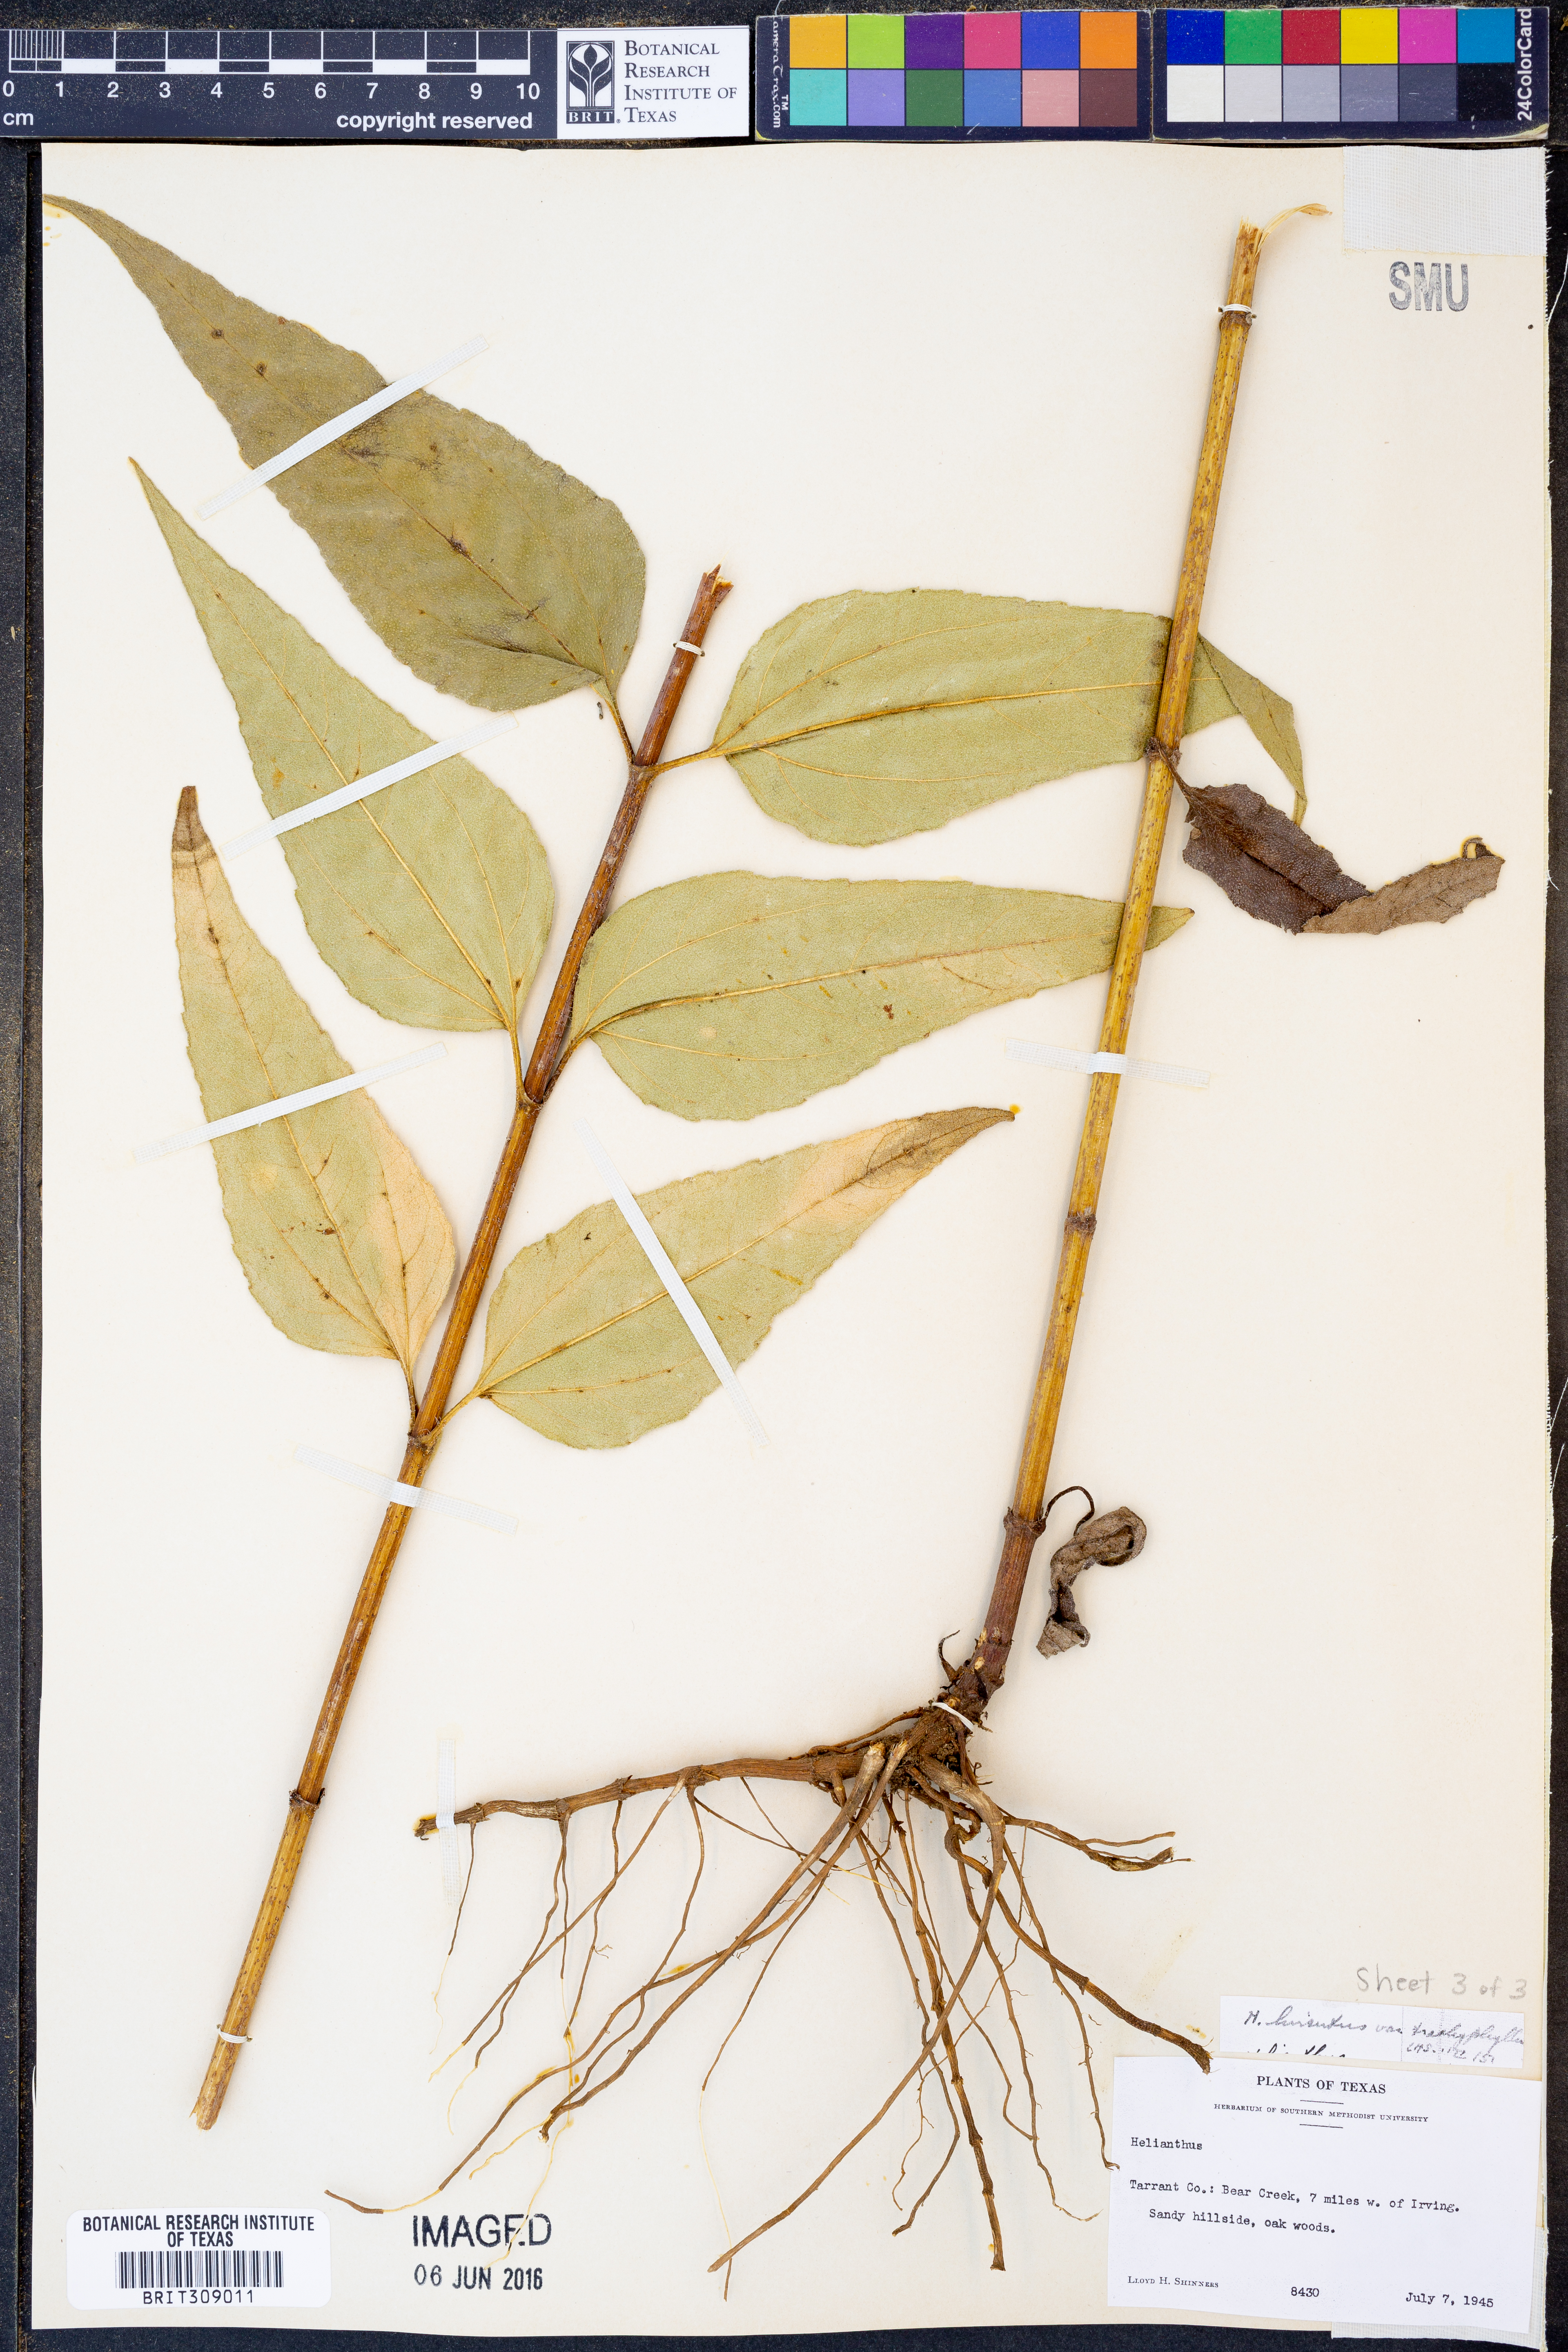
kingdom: Plantae
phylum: Tracheophyta
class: Magnoliopsida
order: Asterales
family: Asteraceae
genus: Helianthus
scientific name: Helianthus hirsutus
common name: Hairy sunflower
